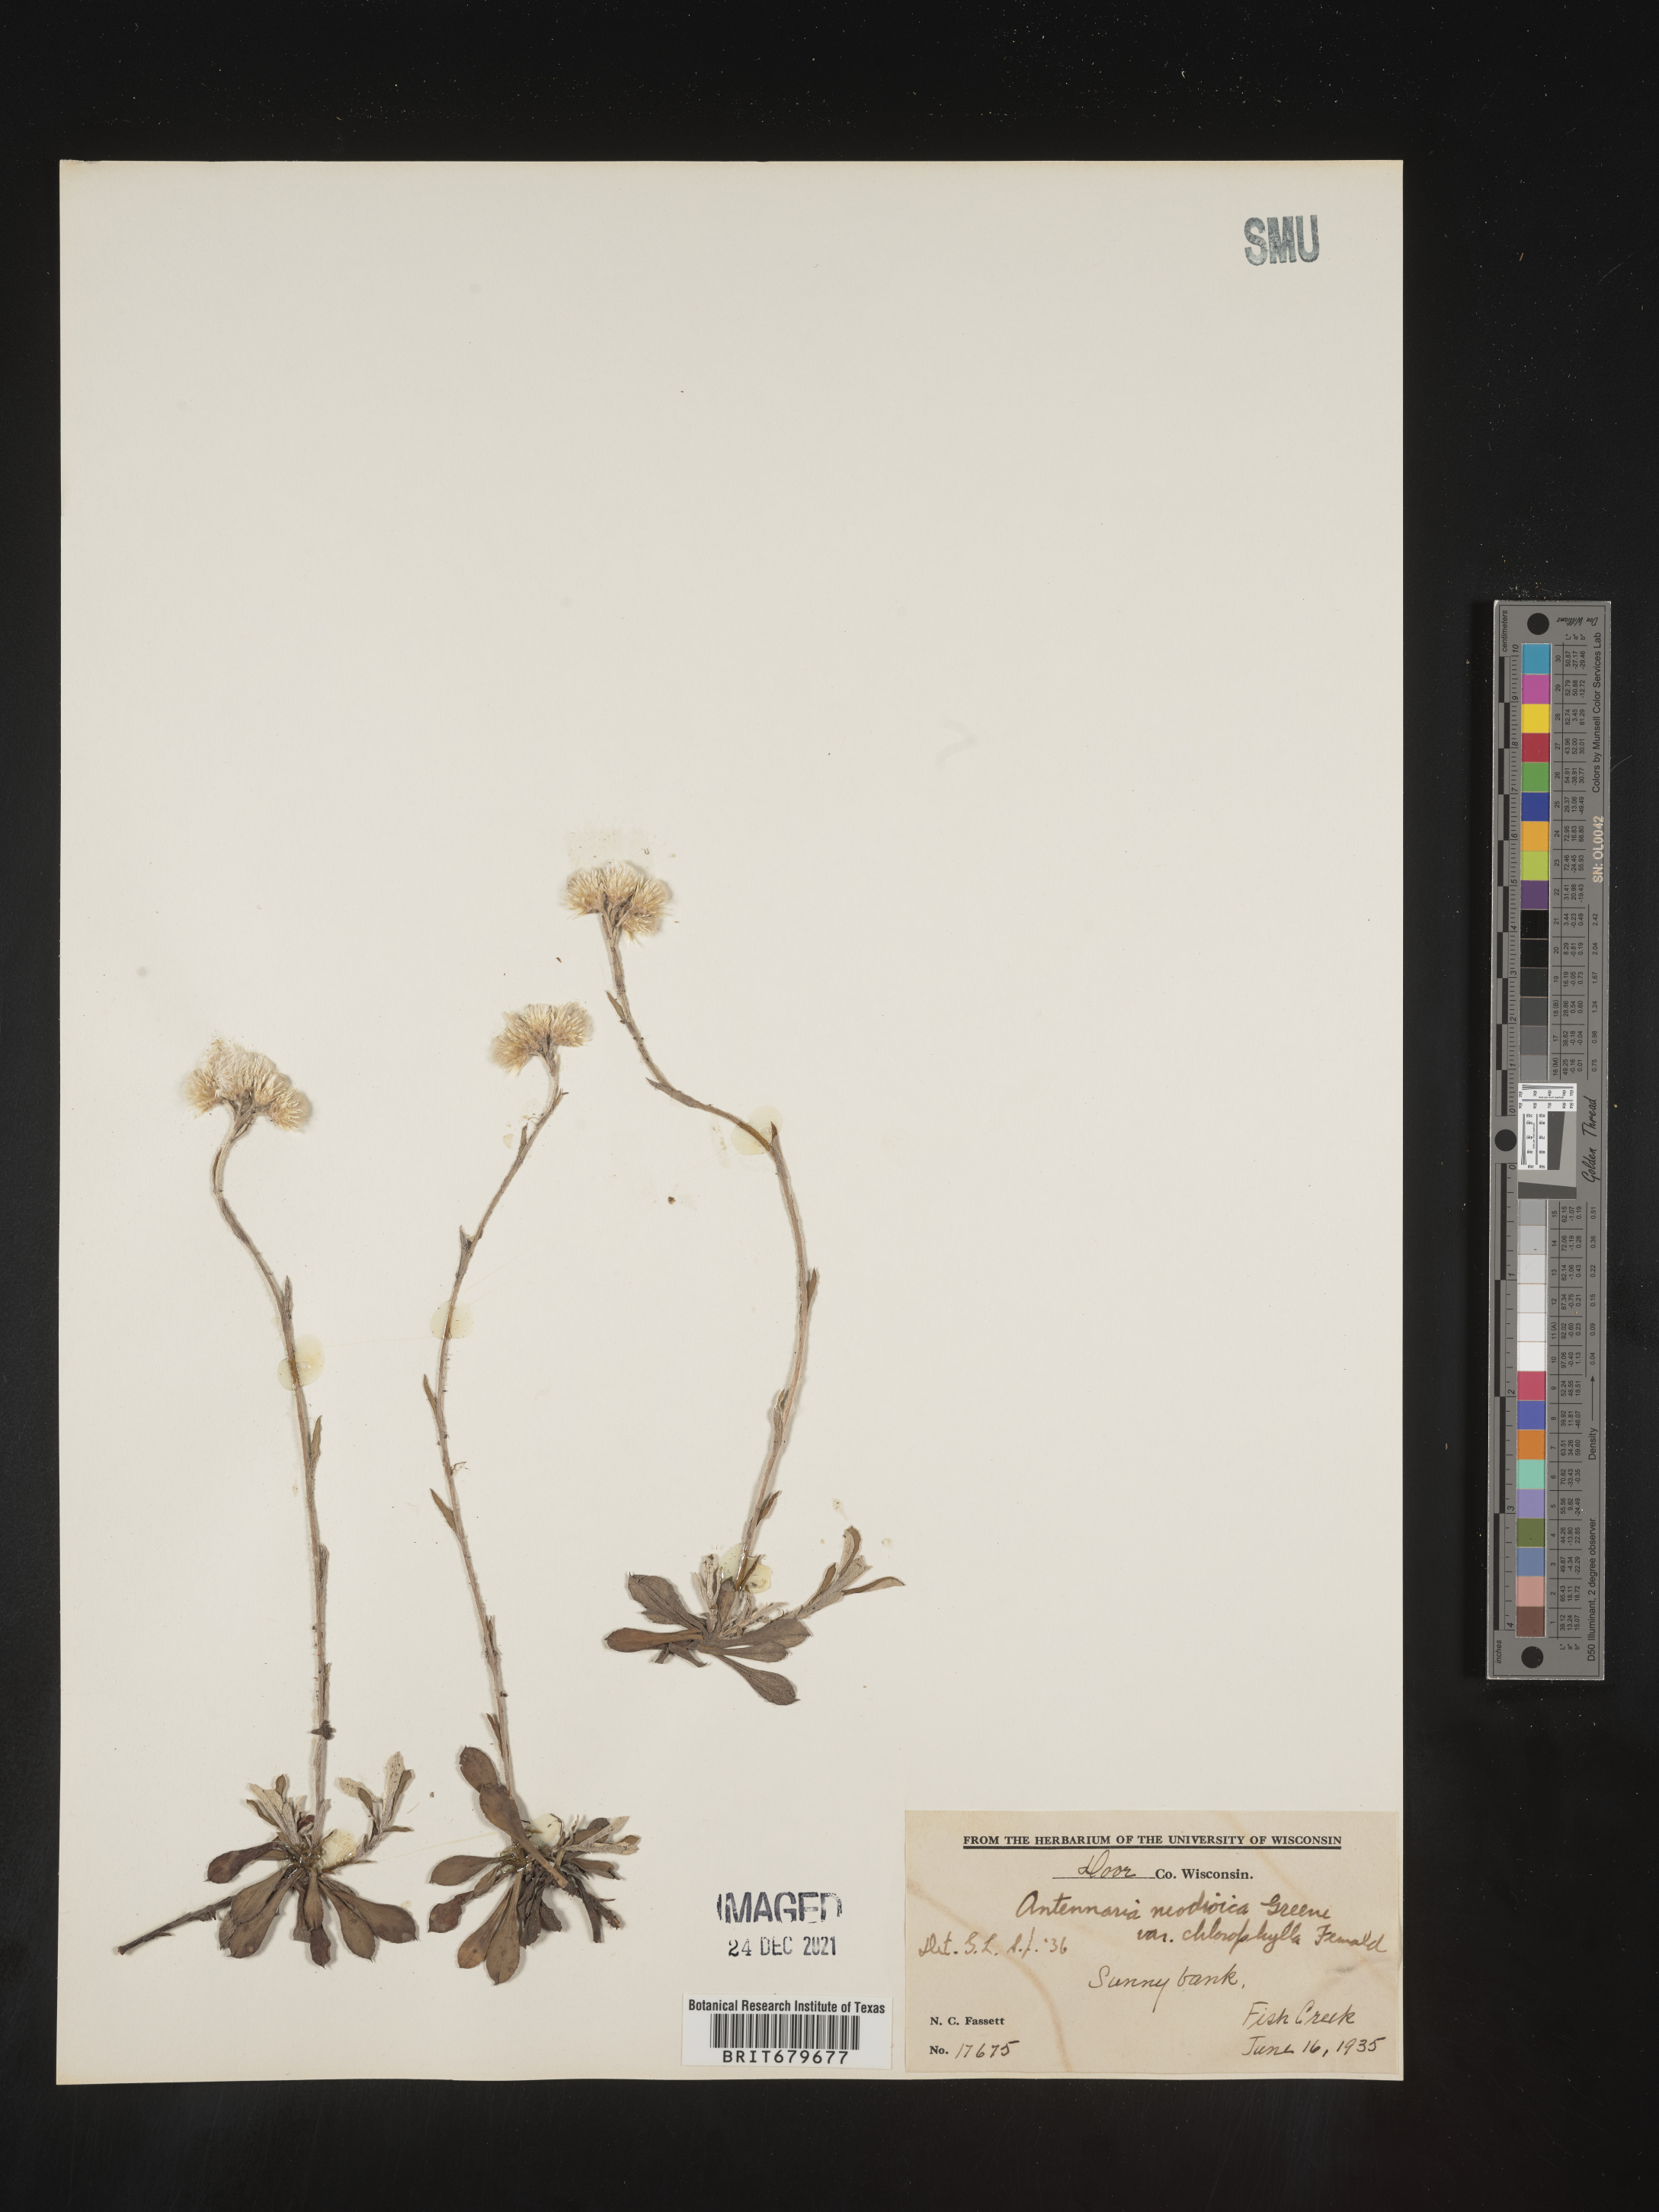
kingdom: Plantae
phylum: Tracheophyta
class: Magnoliopsida
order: Asterales
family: Asteraceae
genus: Antennaria
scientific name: Antennaria howellii
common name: Howell's pussytoes
